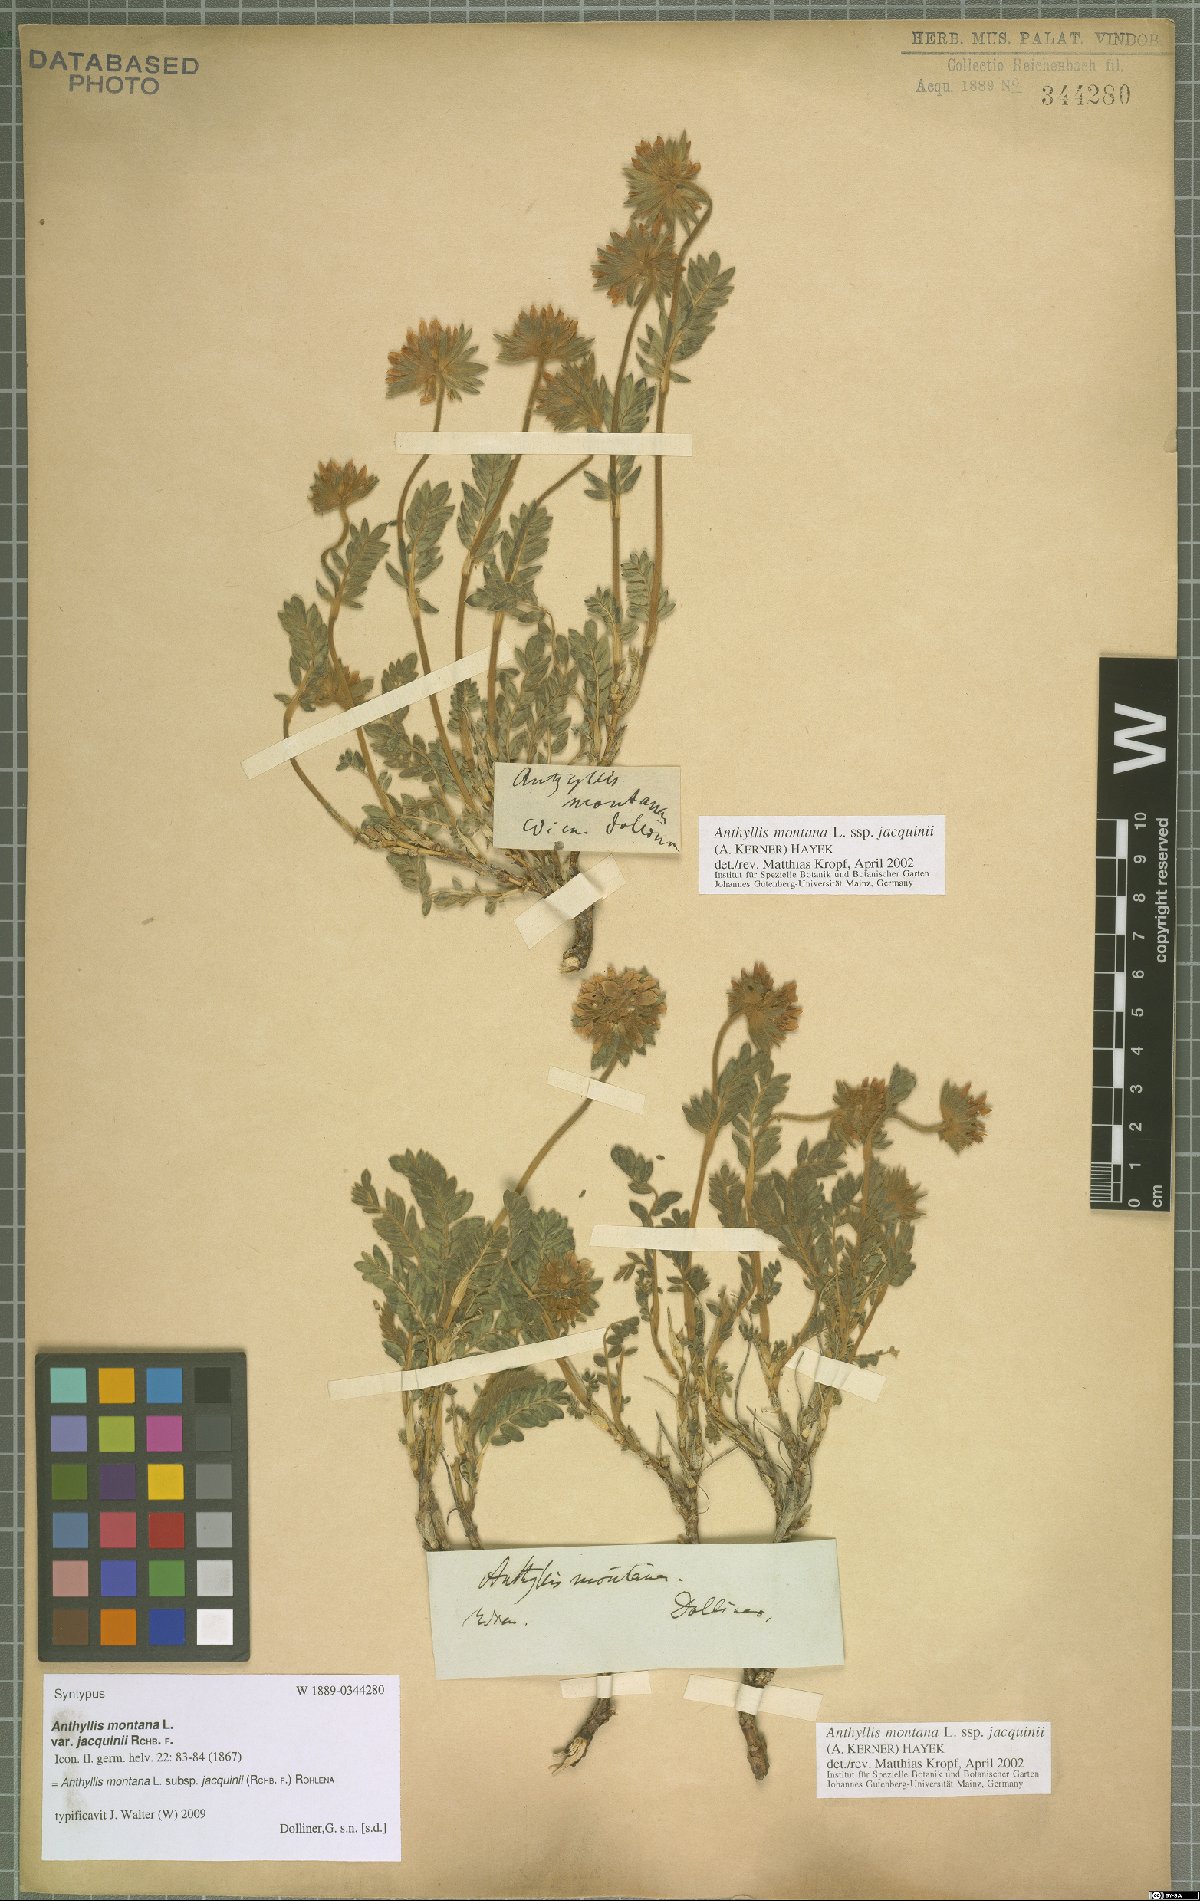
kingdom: Plantae
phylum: Tracheophyta
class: Magnoliopsida
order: Fabales
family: Fabaceae
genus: Anthyllis
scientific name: Anthyllis montana
